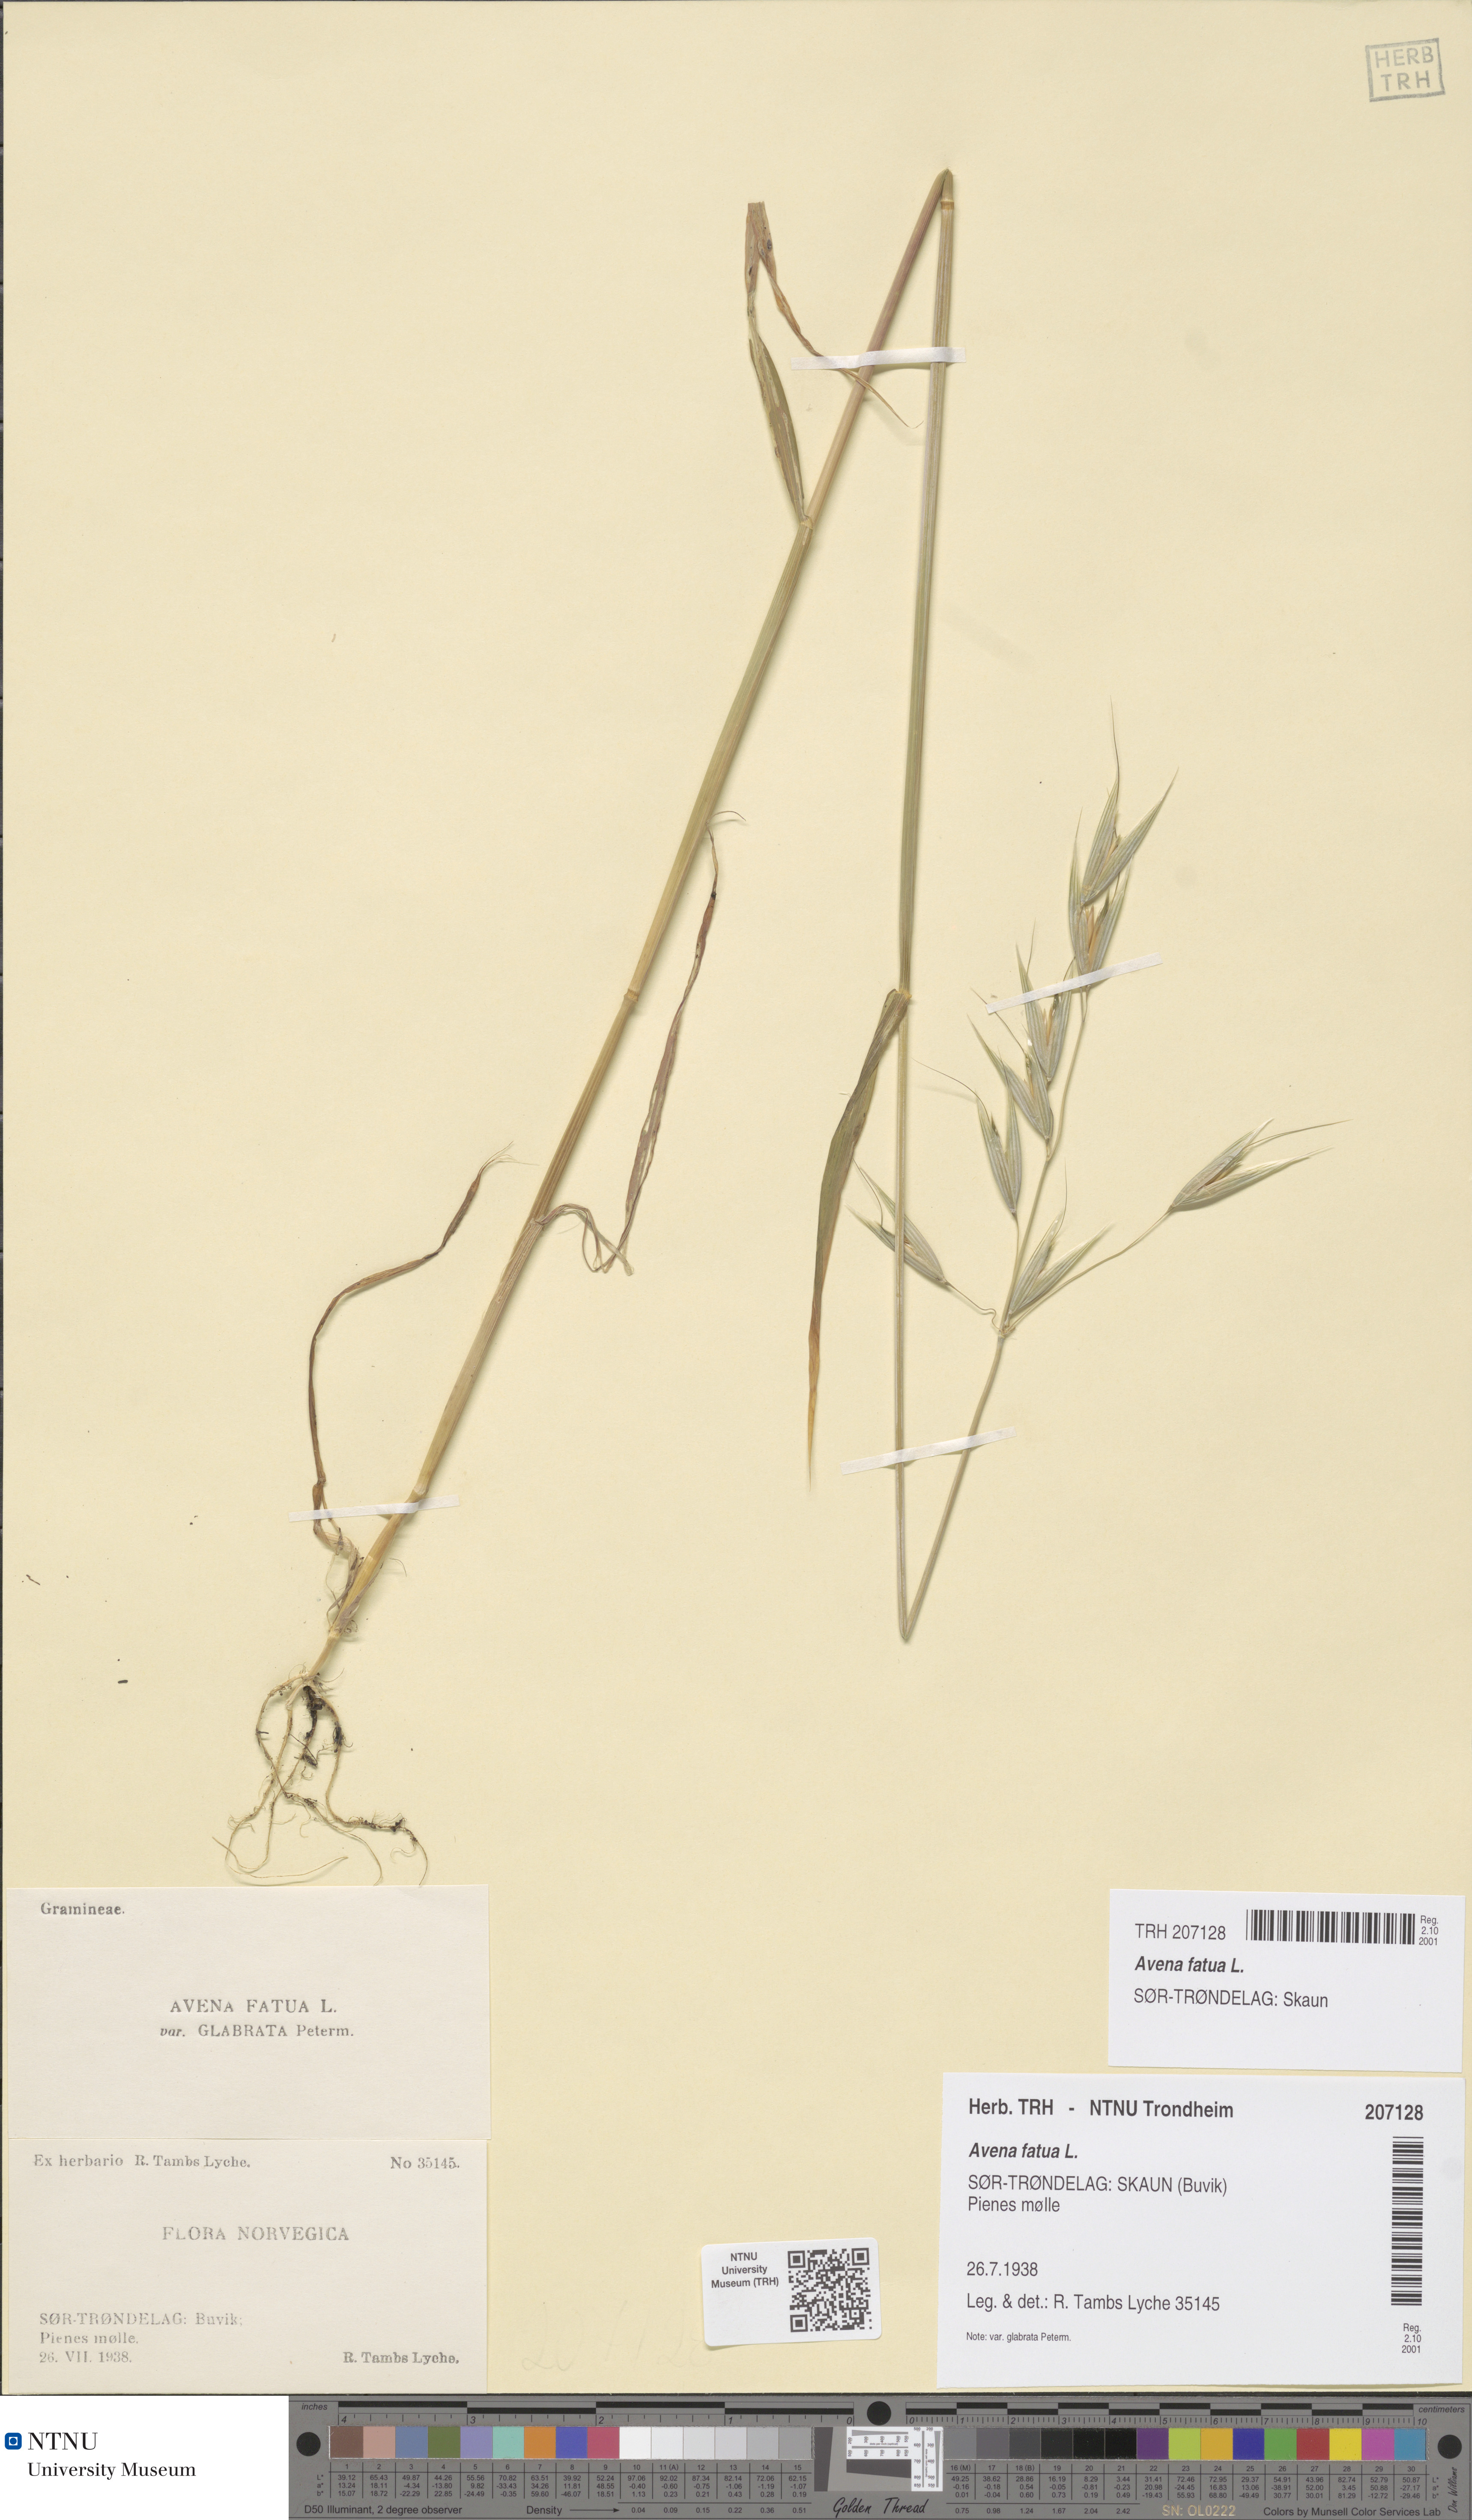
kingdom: Plantae
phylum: Tracheophyta
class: Liliopsida
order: Poales
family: Poaceae
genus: Avena
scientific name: Avena fatua
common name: Wild oat
